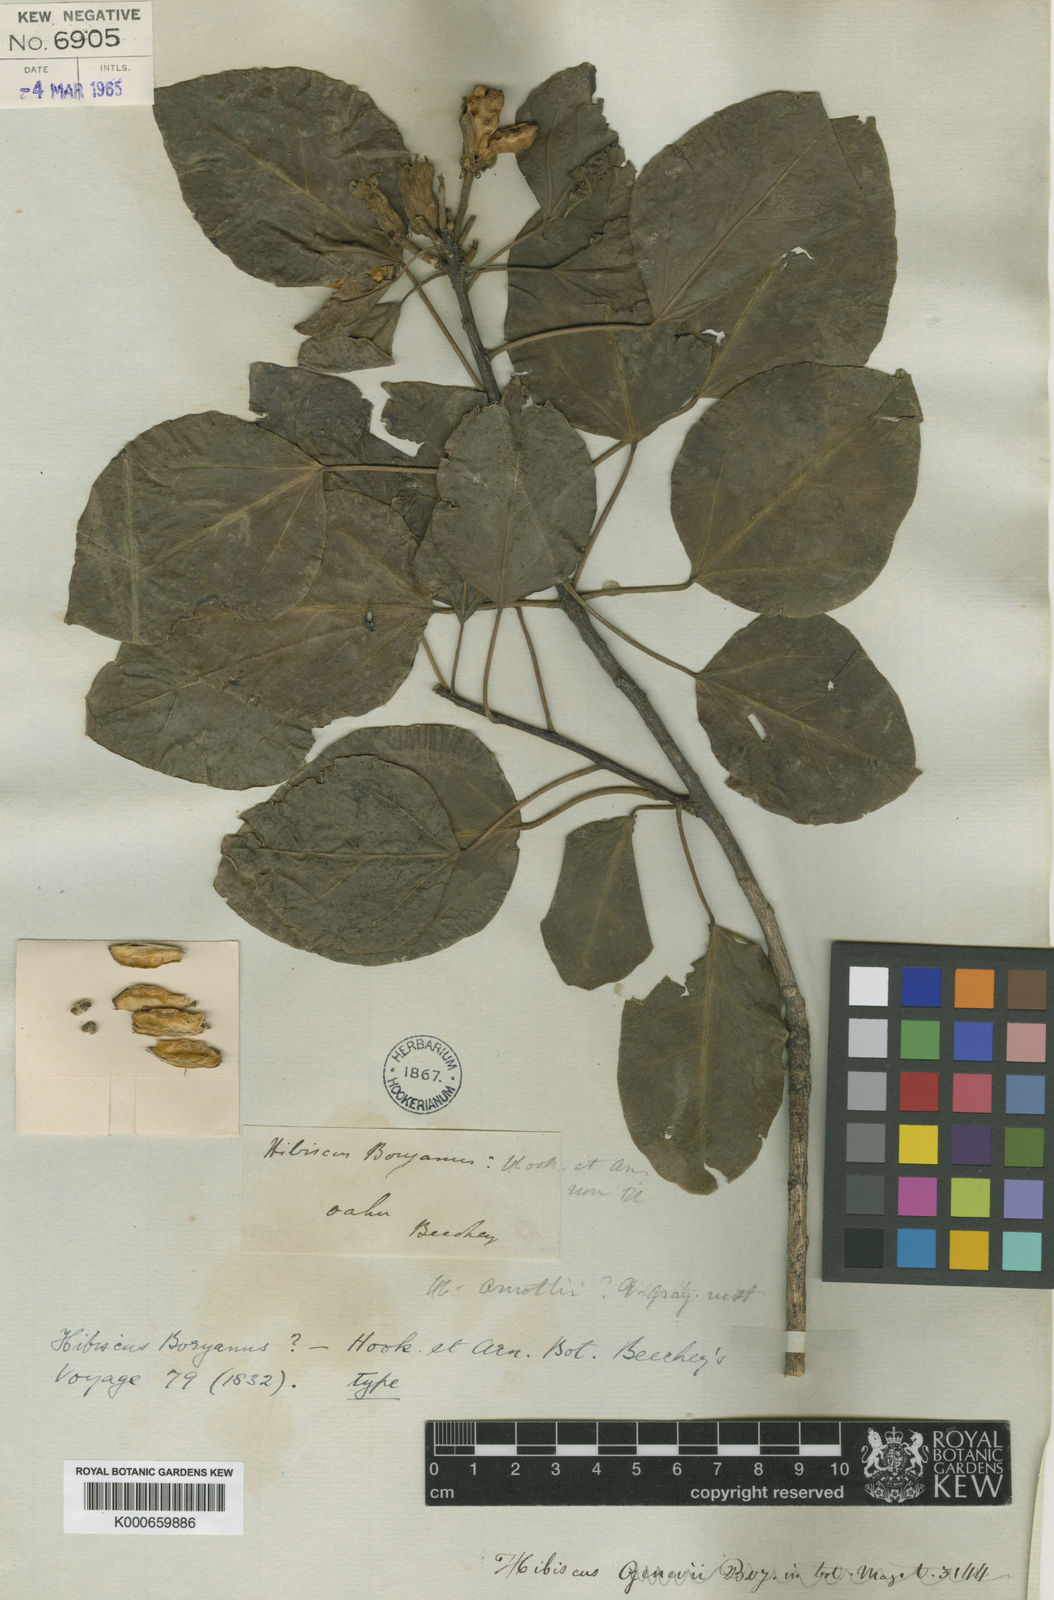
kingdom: Plantae
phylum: Tracheophyta
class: Magnoliopsida
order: Malvales
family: Malvaceae
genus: Hibiscus
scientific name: Hibiscus
